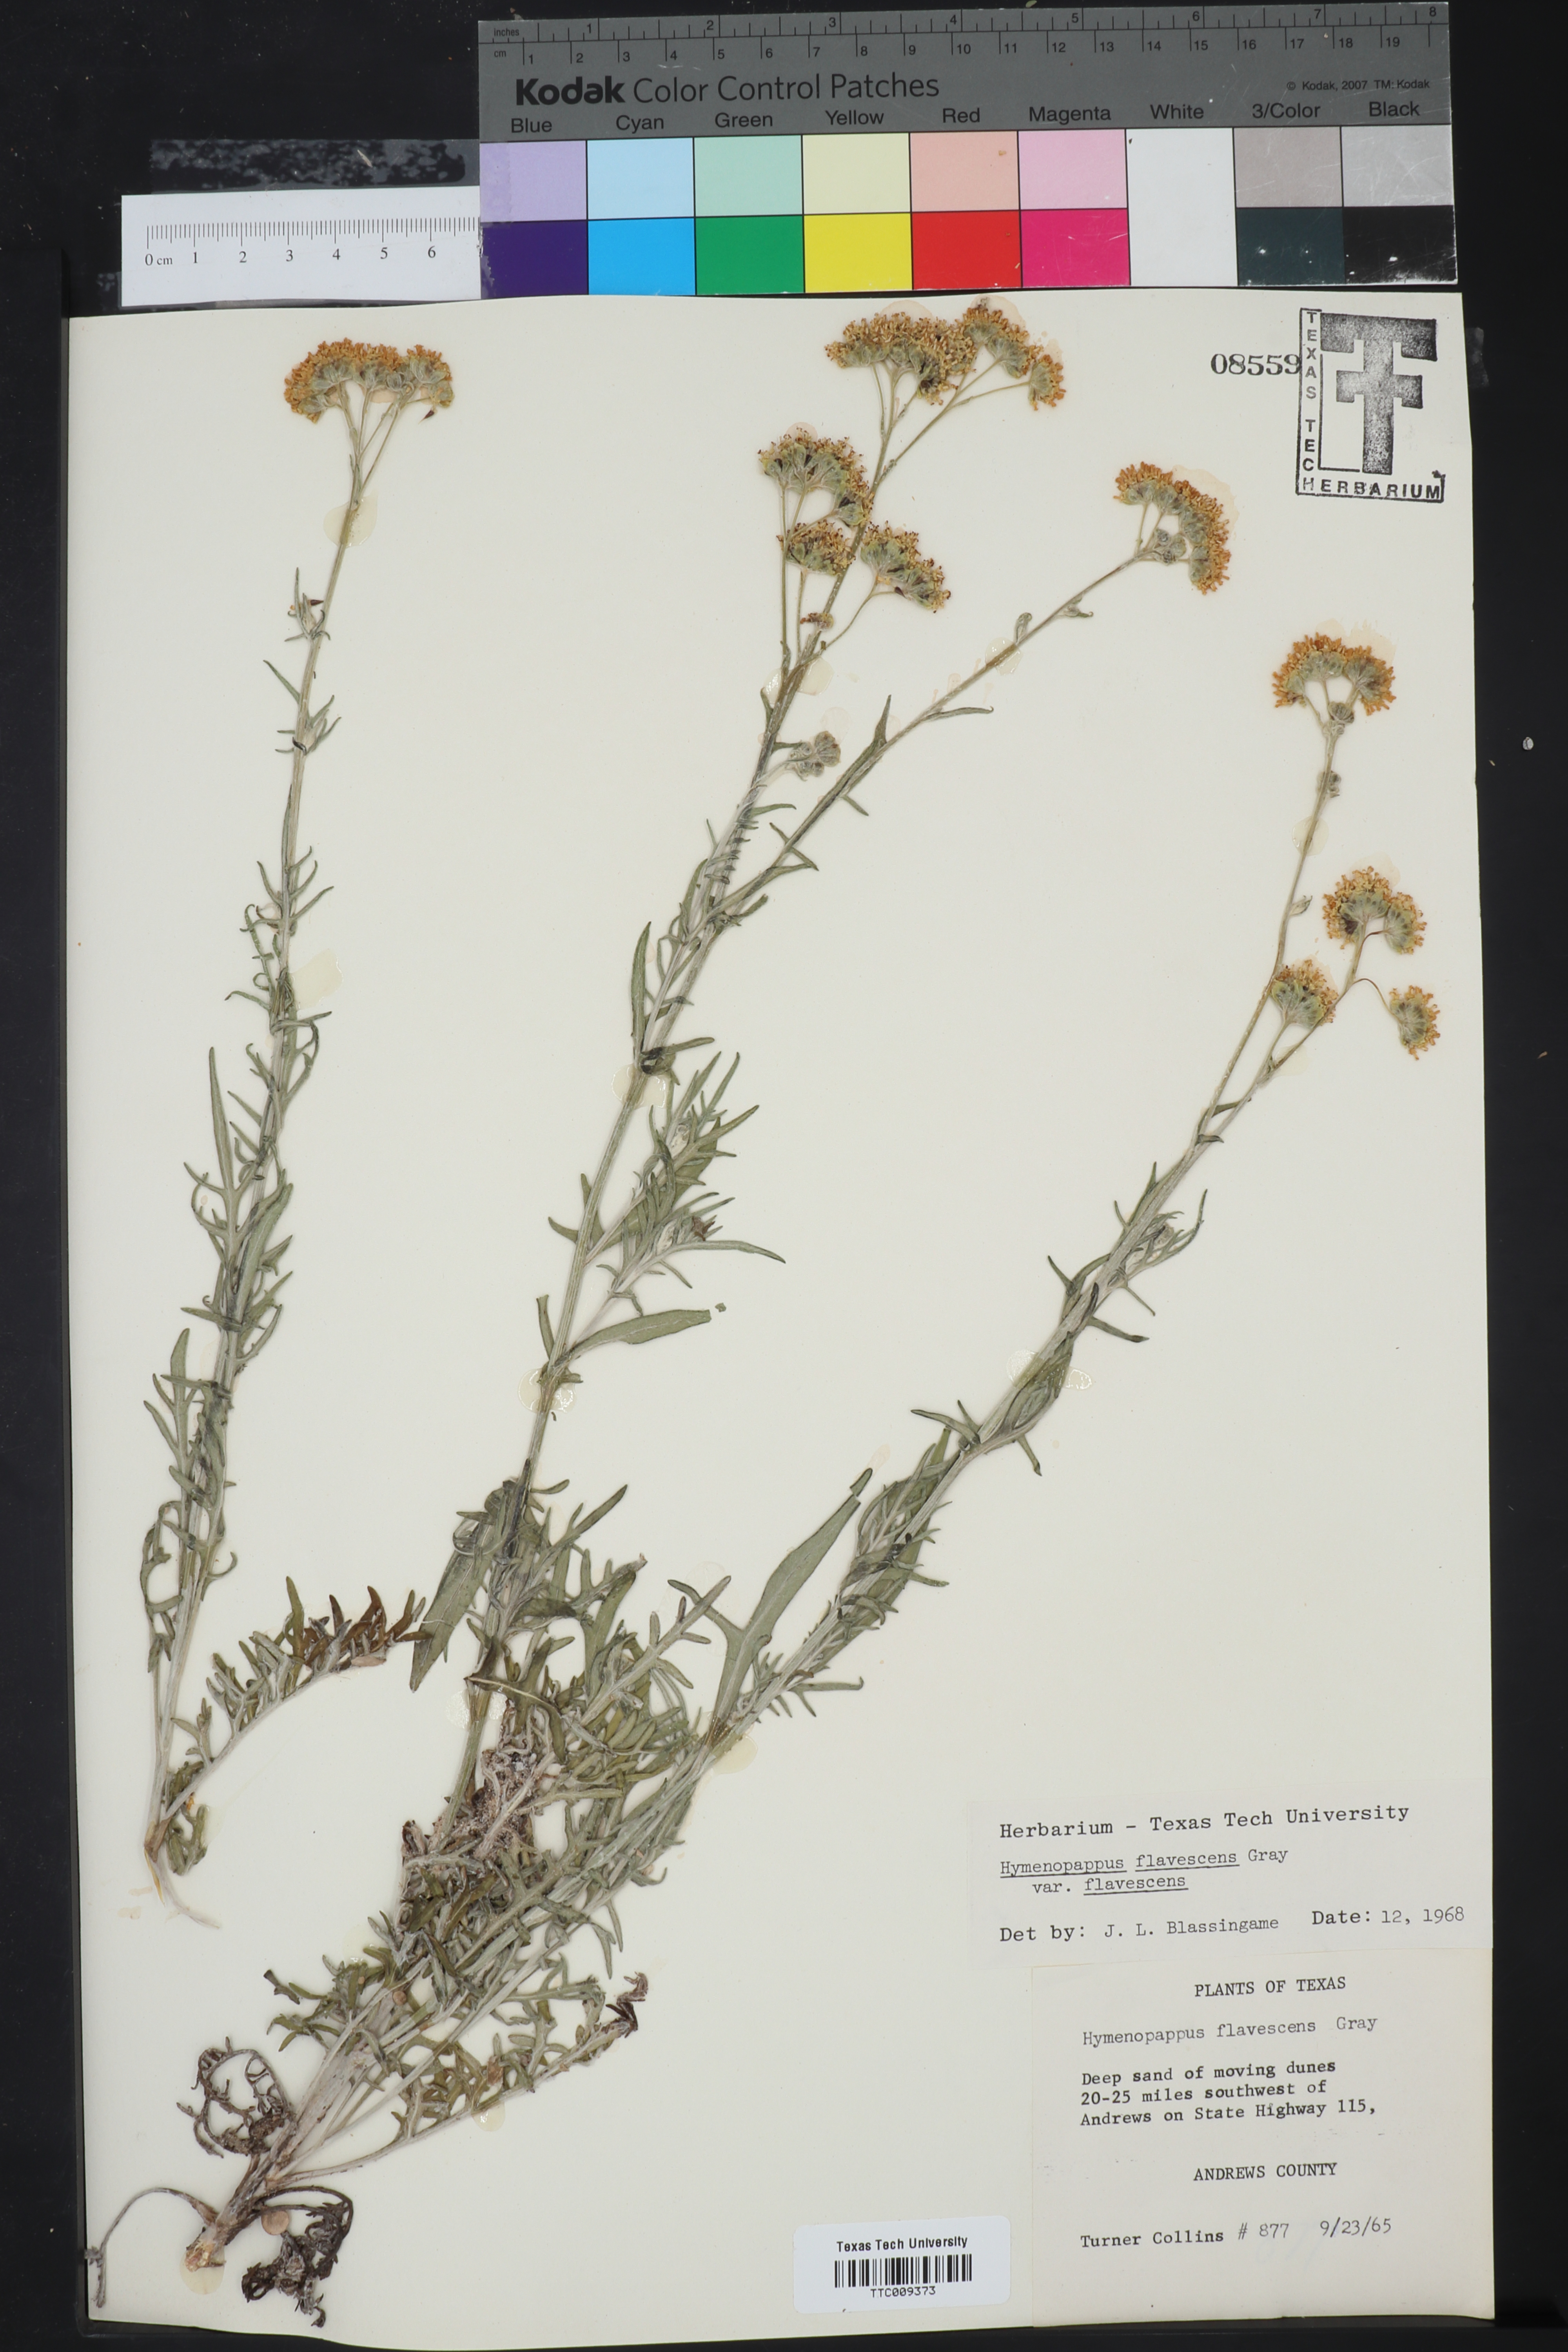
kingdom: Plantae
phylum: Tracheophyta
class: Magnoliopsida
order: Asterales
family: Asteraceae
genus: Hymenopappus
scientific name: Hymenopappus flavescens
